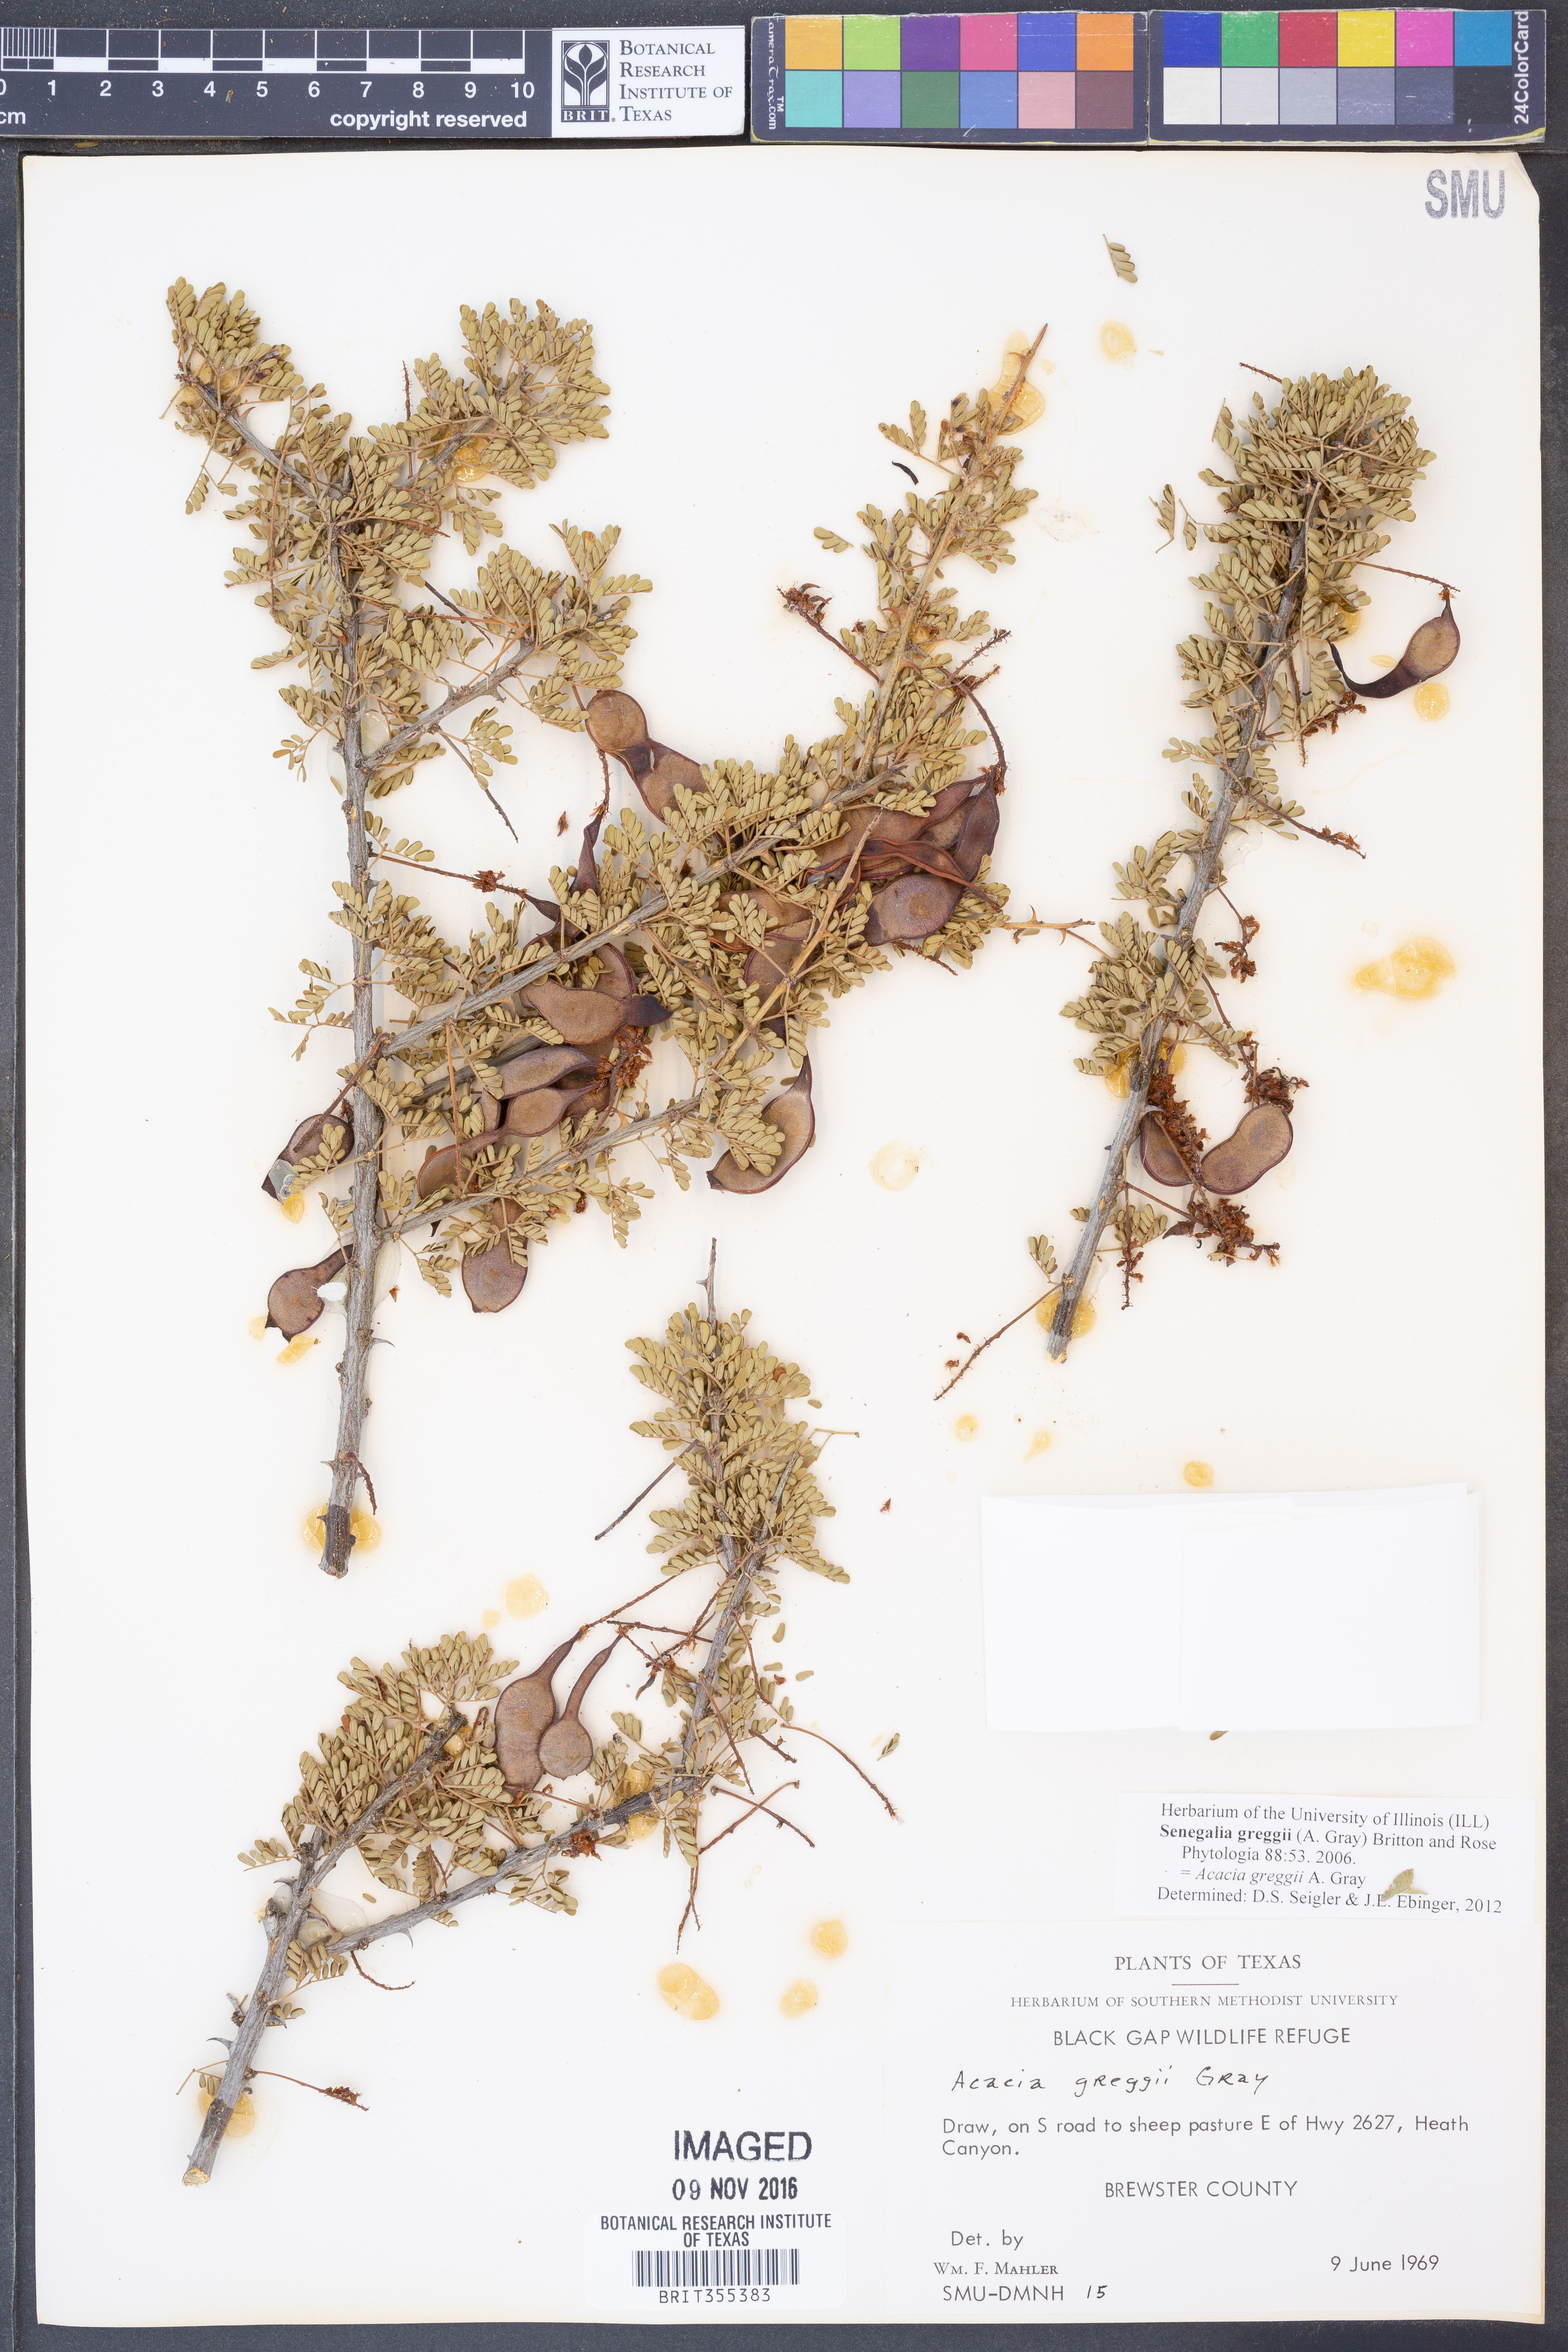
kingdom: Plantae
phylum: Tracheophyta
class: Magnoliopsida
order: Fabales
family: Fabaceae
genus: Senegalia
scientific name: Senegalia greggii
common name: Texas-mimosa
